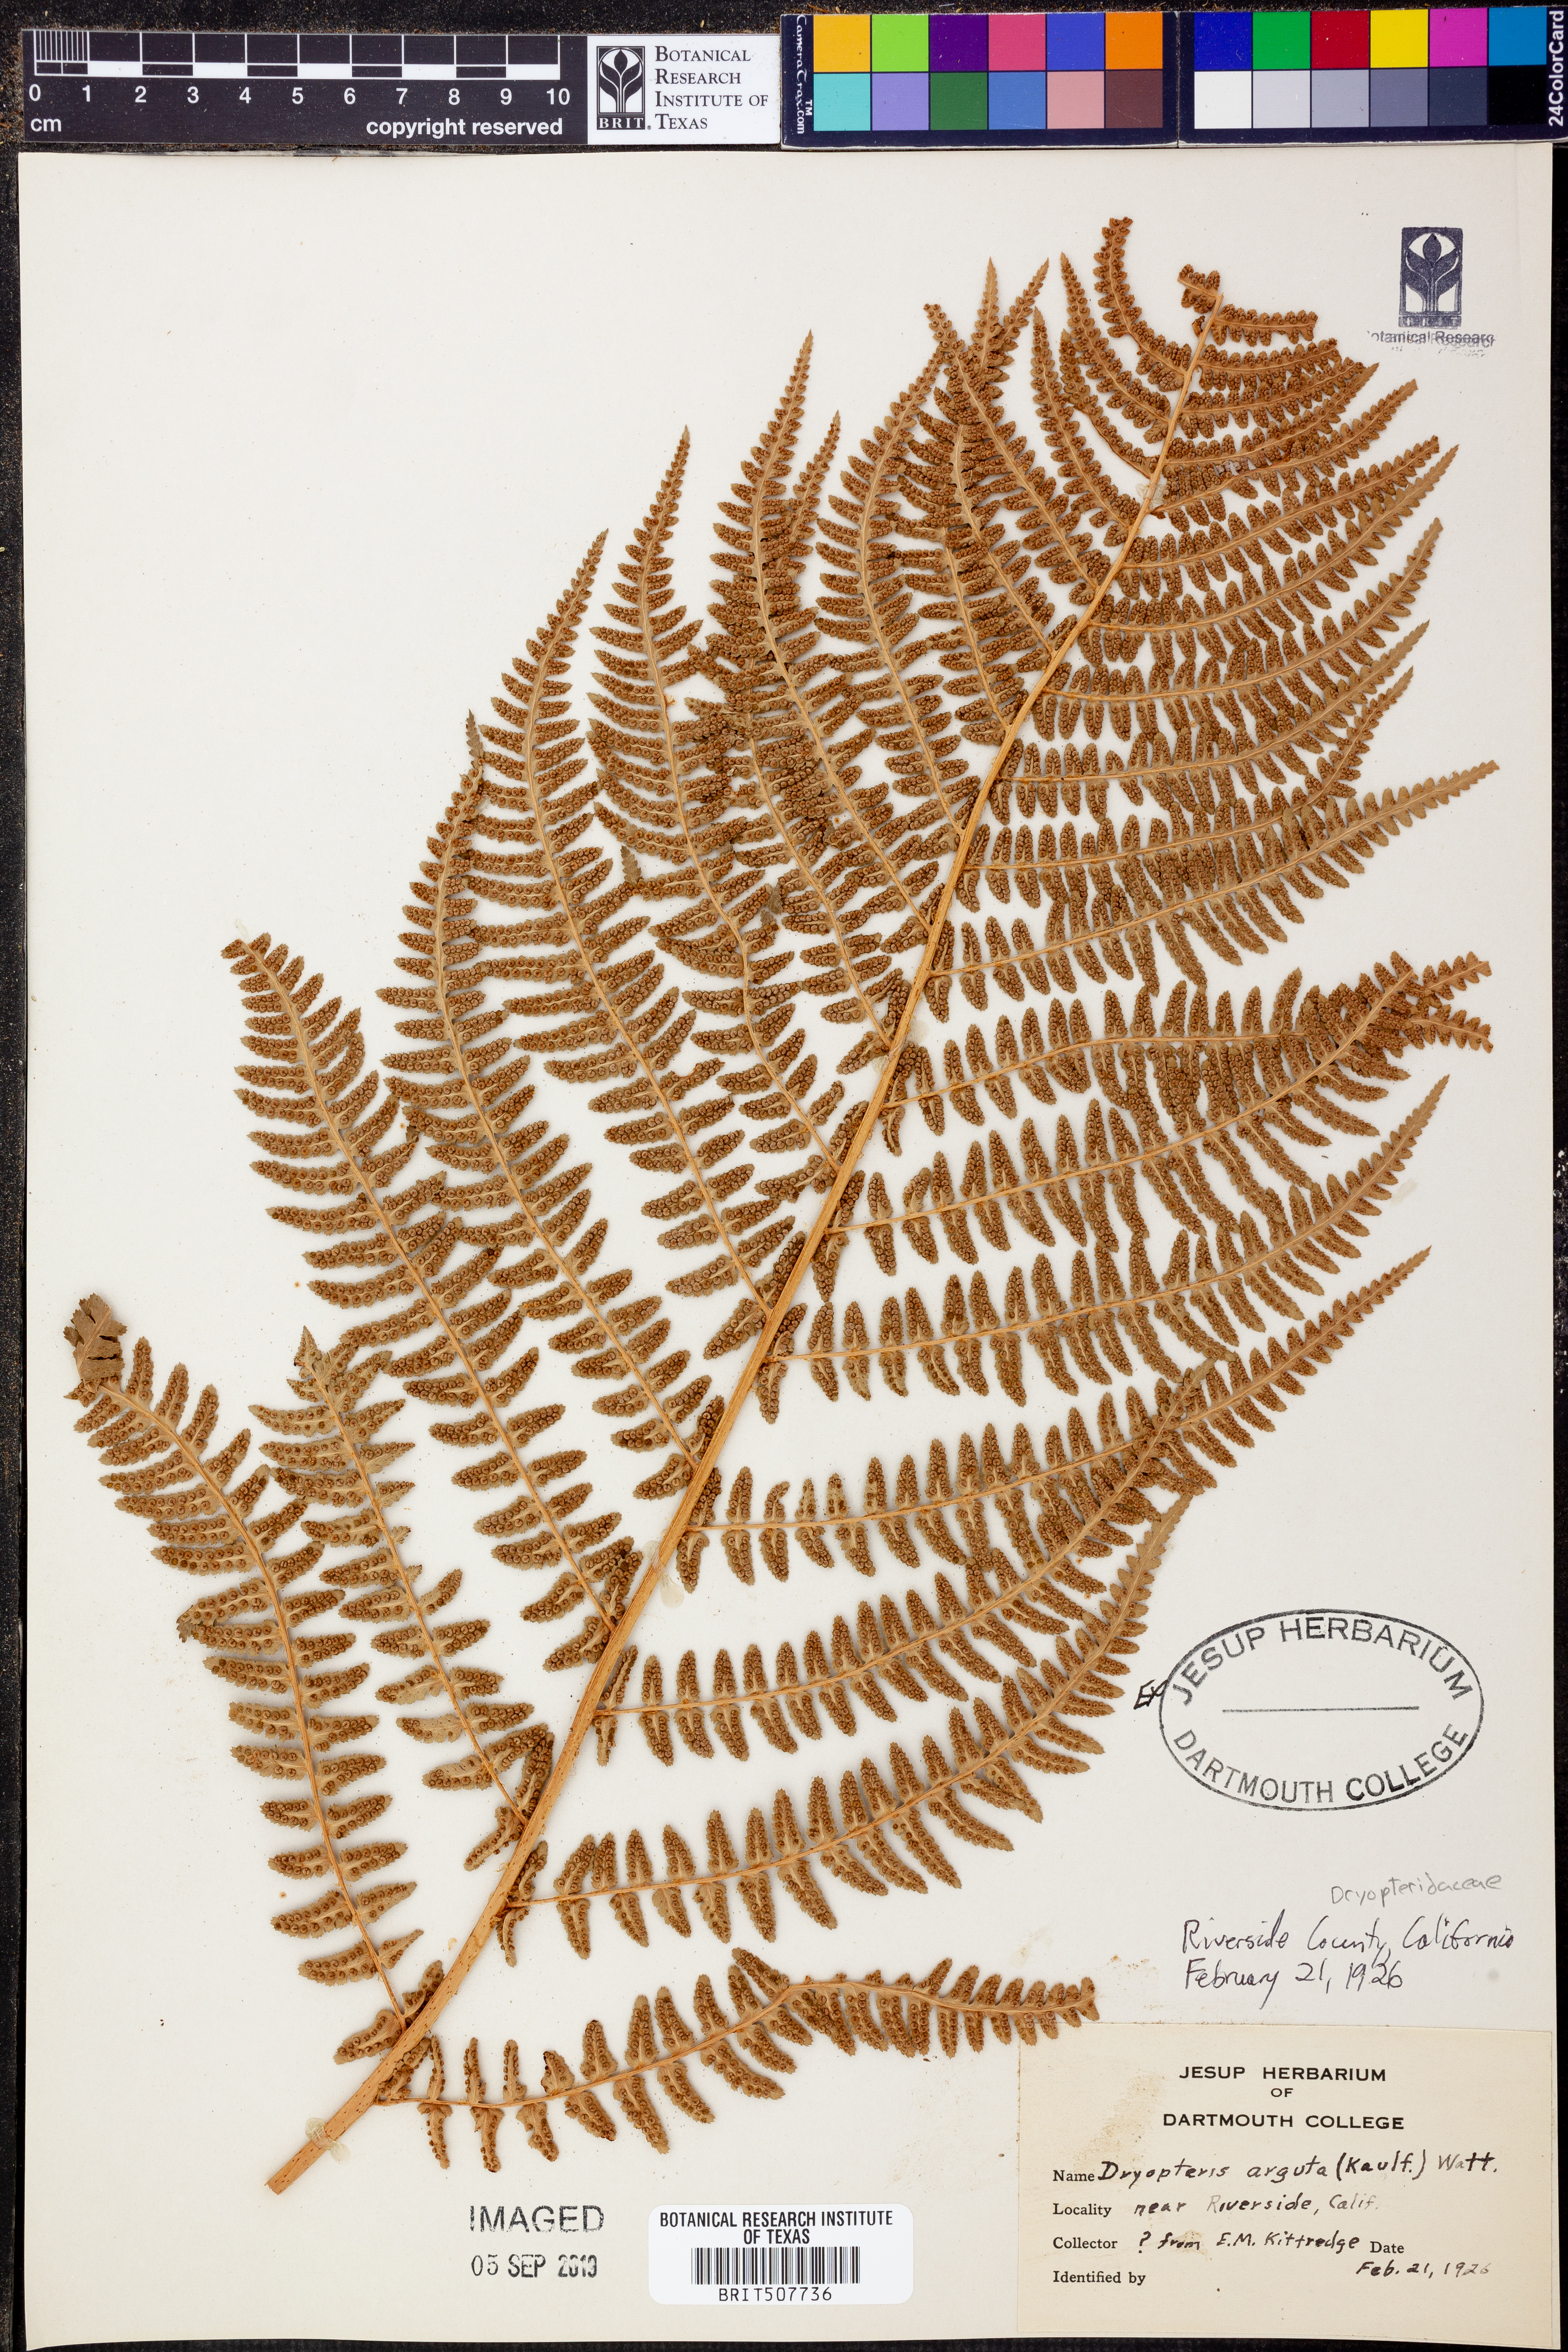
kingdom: Plantae
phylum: Tracheophyta
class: Polypodiopsida
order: Polypodiales
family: Dryopteridaceae
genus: Dryopteris
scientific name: Dryopteris arguta
